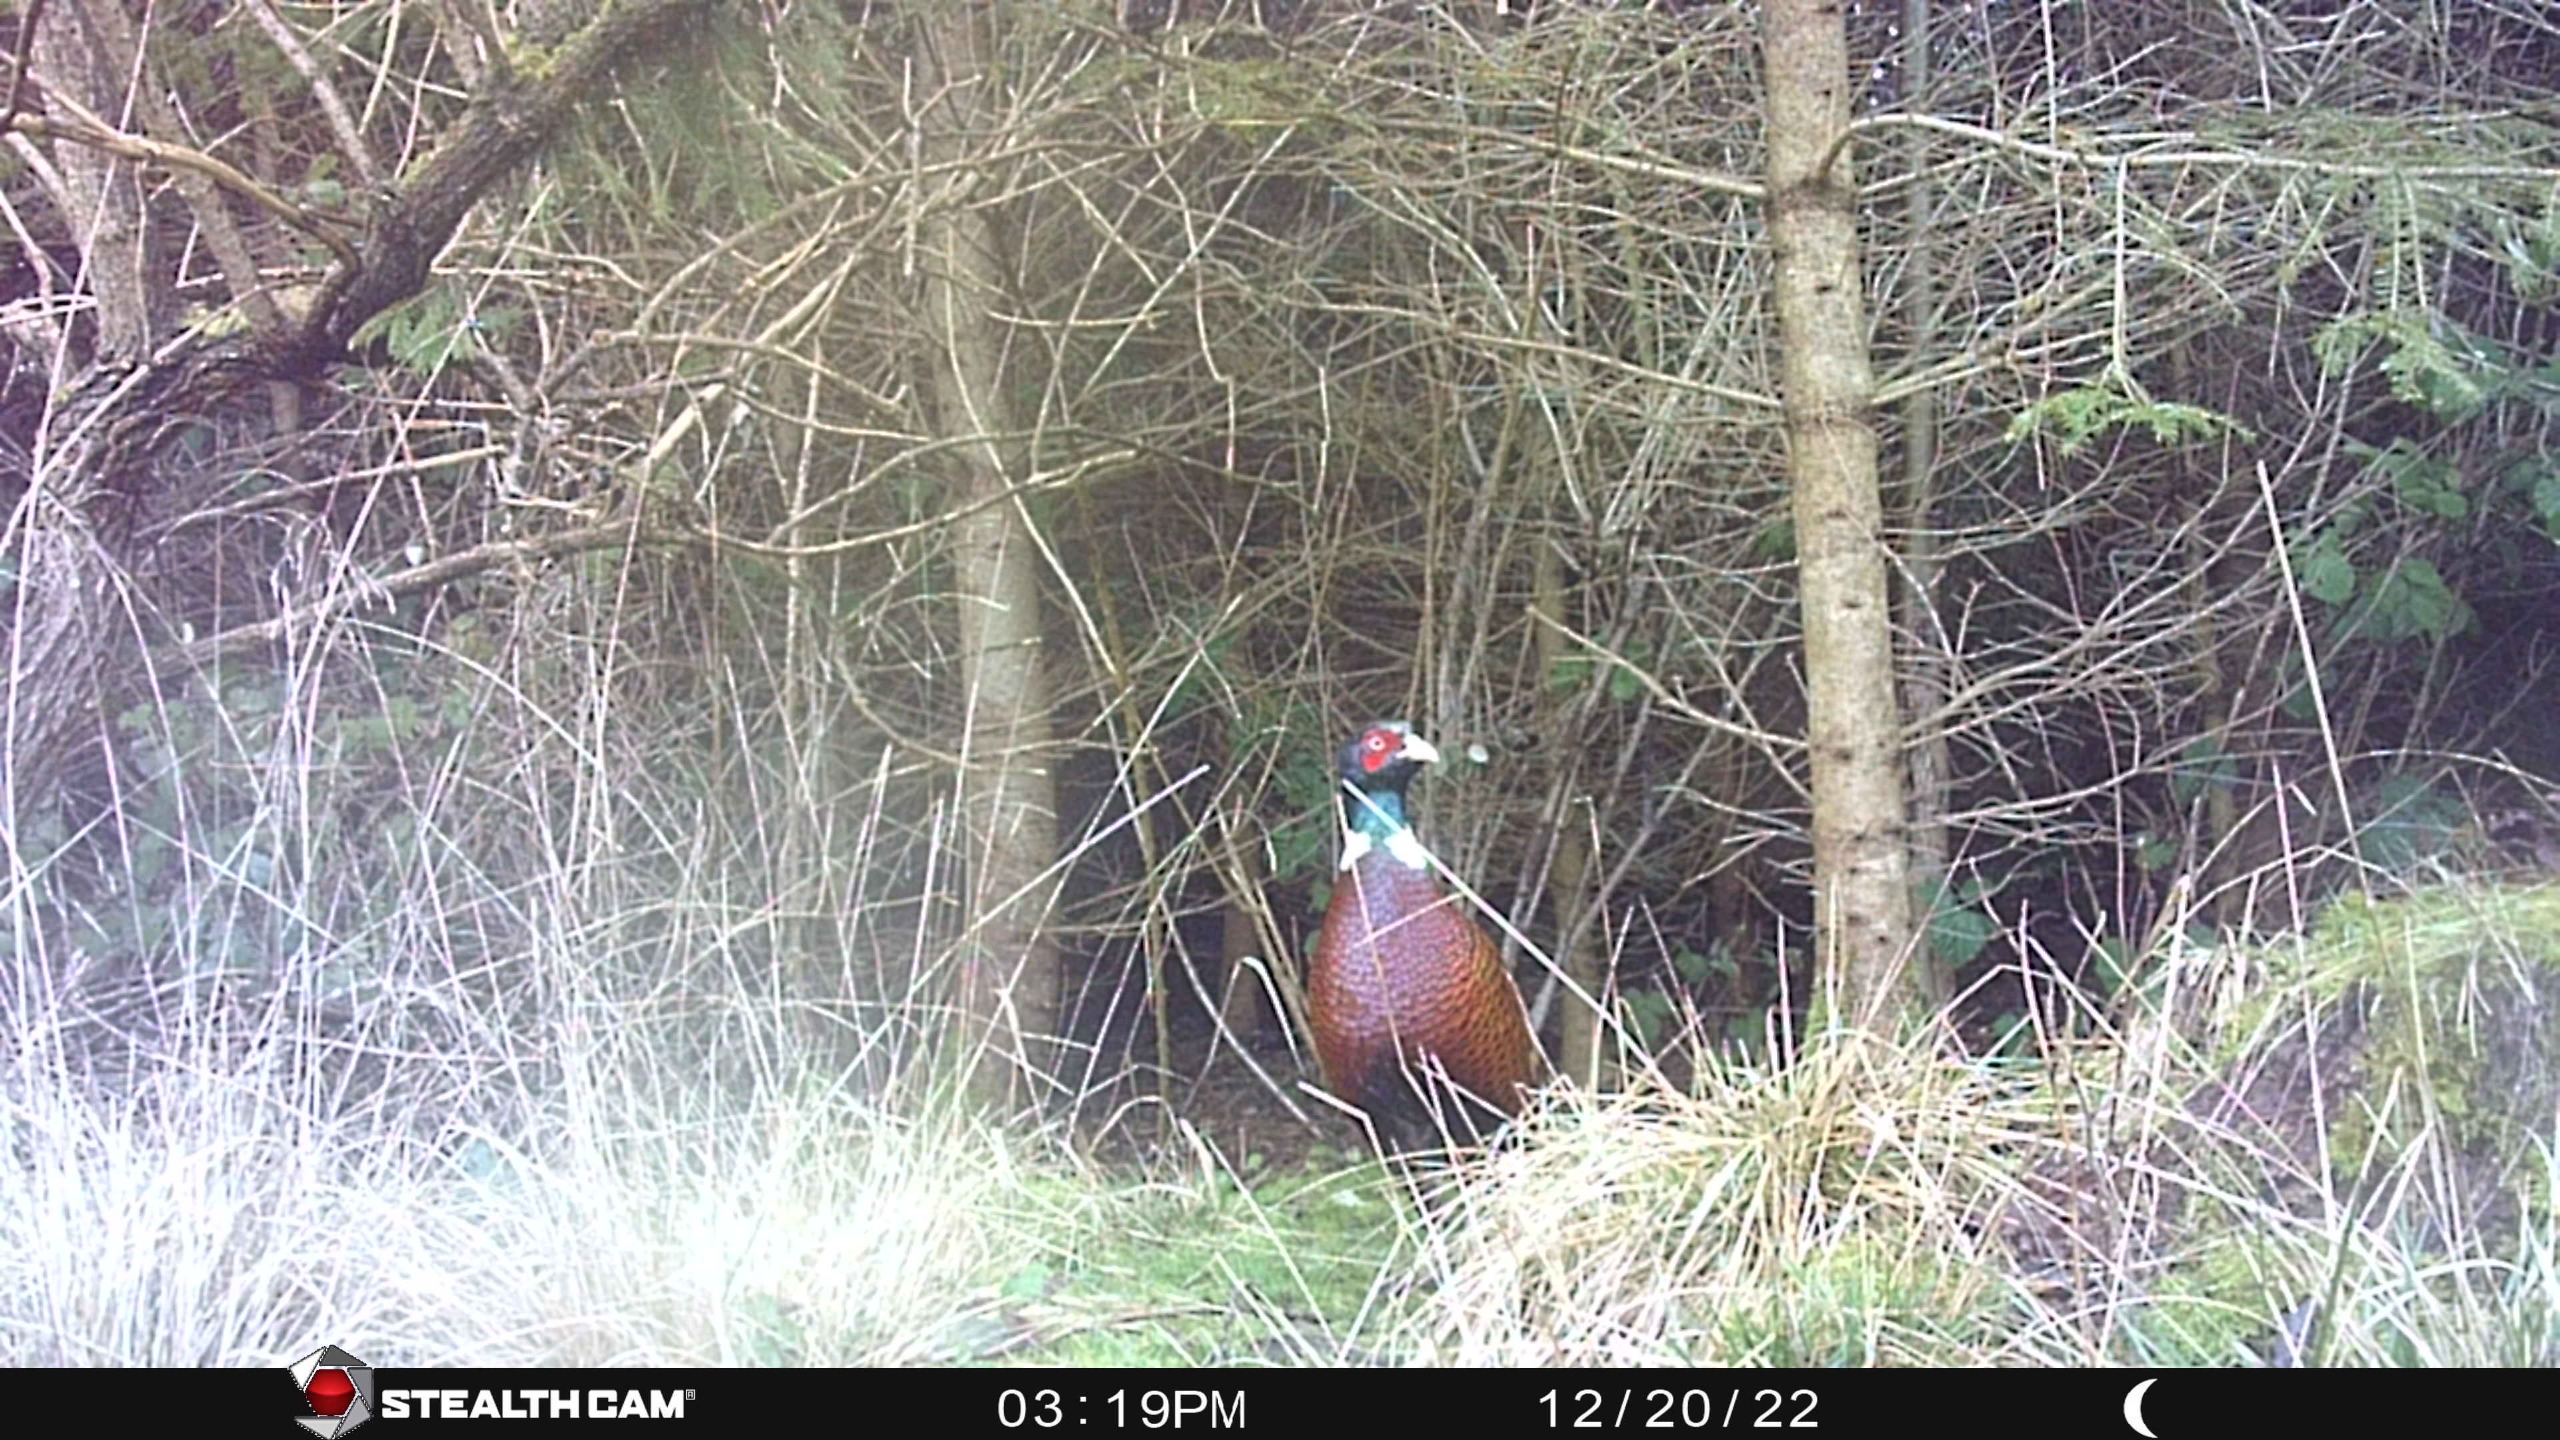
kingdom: Animalia
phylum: Chordata
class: Aves
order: Galliformes
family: Phasianidae
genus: Phasianus
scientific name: Phasianus colchicus
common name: Fasan
